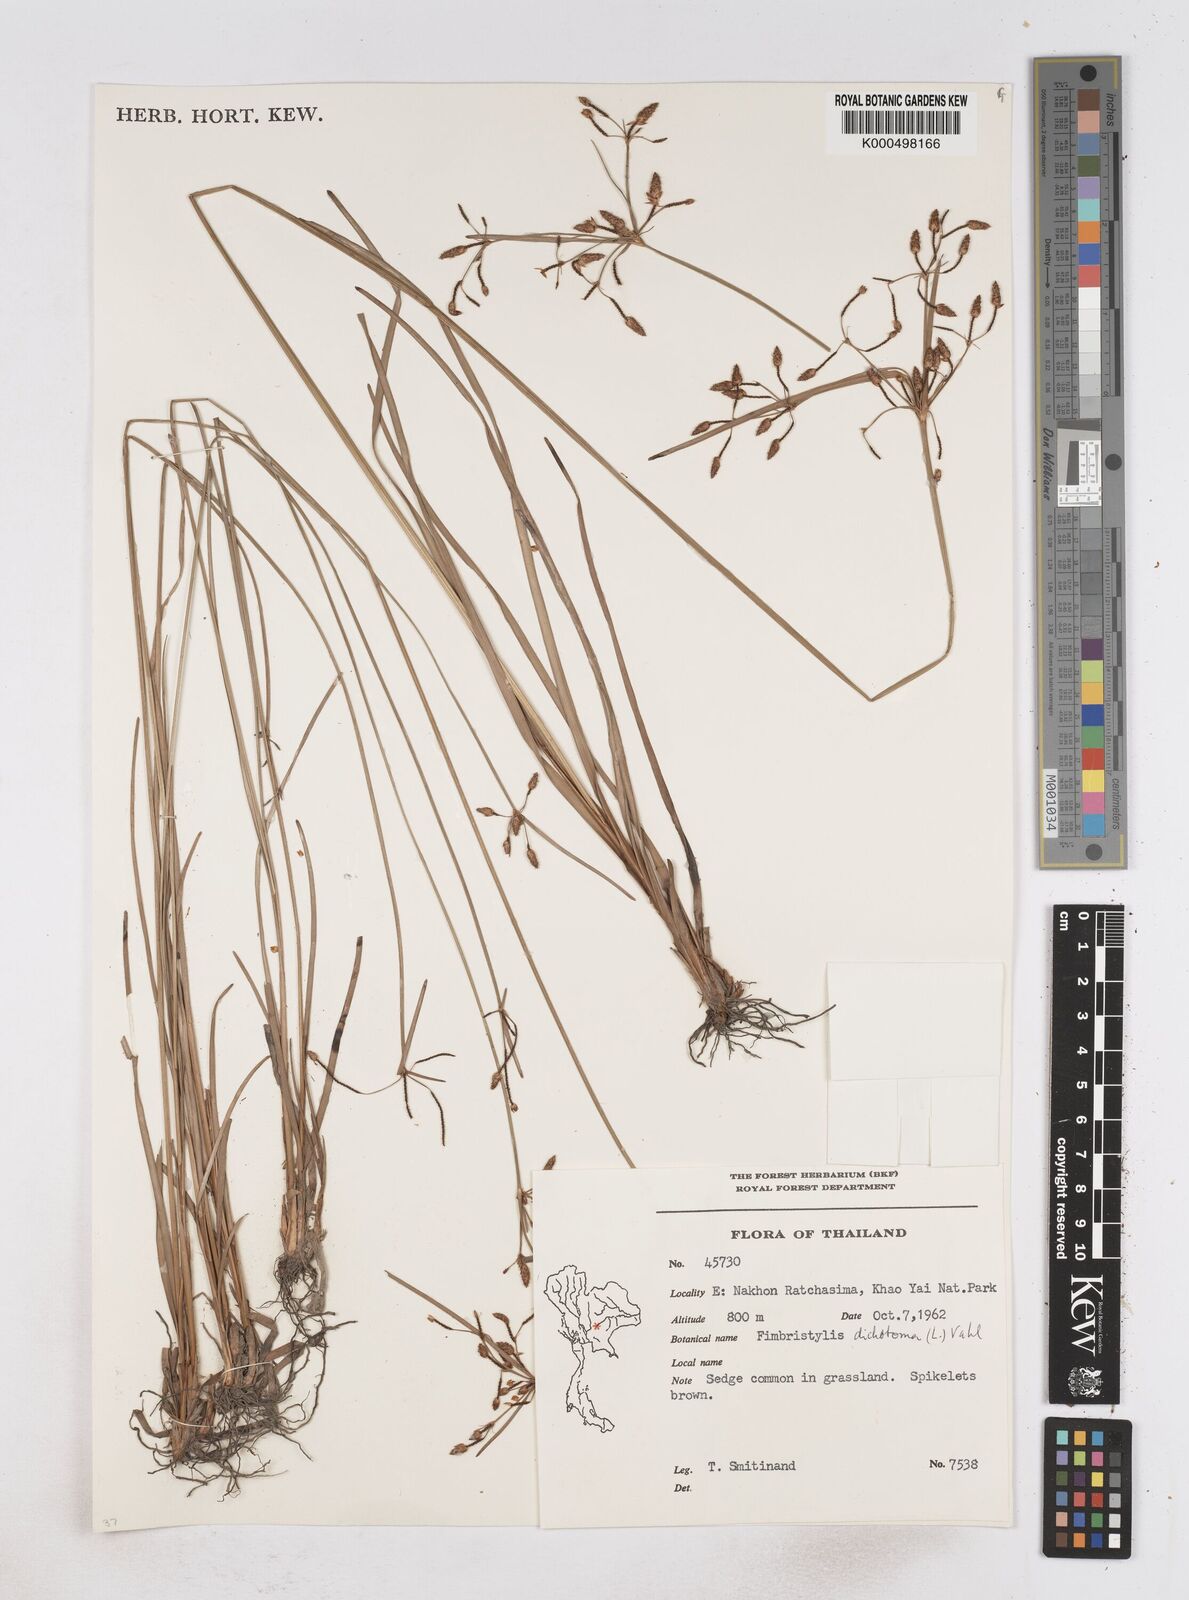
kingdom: Plantae
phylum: Tracheophyta
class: Liliopsida
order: Poales
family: Cyperaceae
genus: Fimbristylis
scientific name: Fimbristylis dichotoma
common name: Forked fimbry
